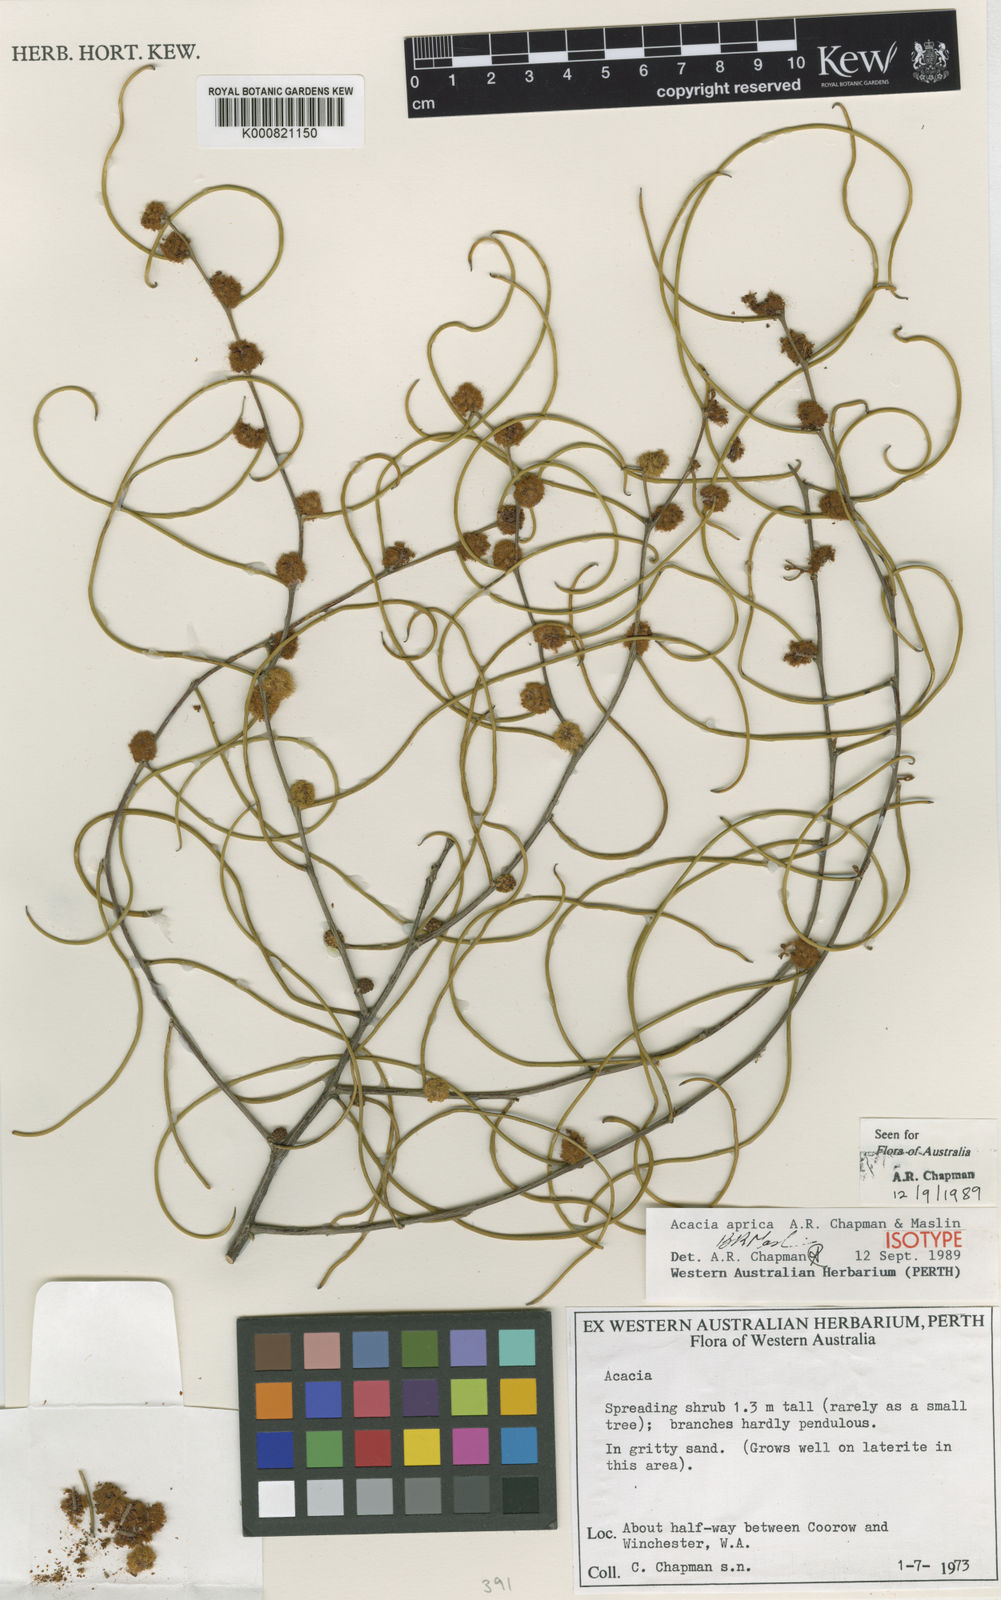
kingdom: Plantae
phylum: Tracheophyta
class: Magnoliopsida
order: Fabales
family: Fabaceae
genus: Acacia
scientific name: Acacia aprica
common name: Blunt wattle
